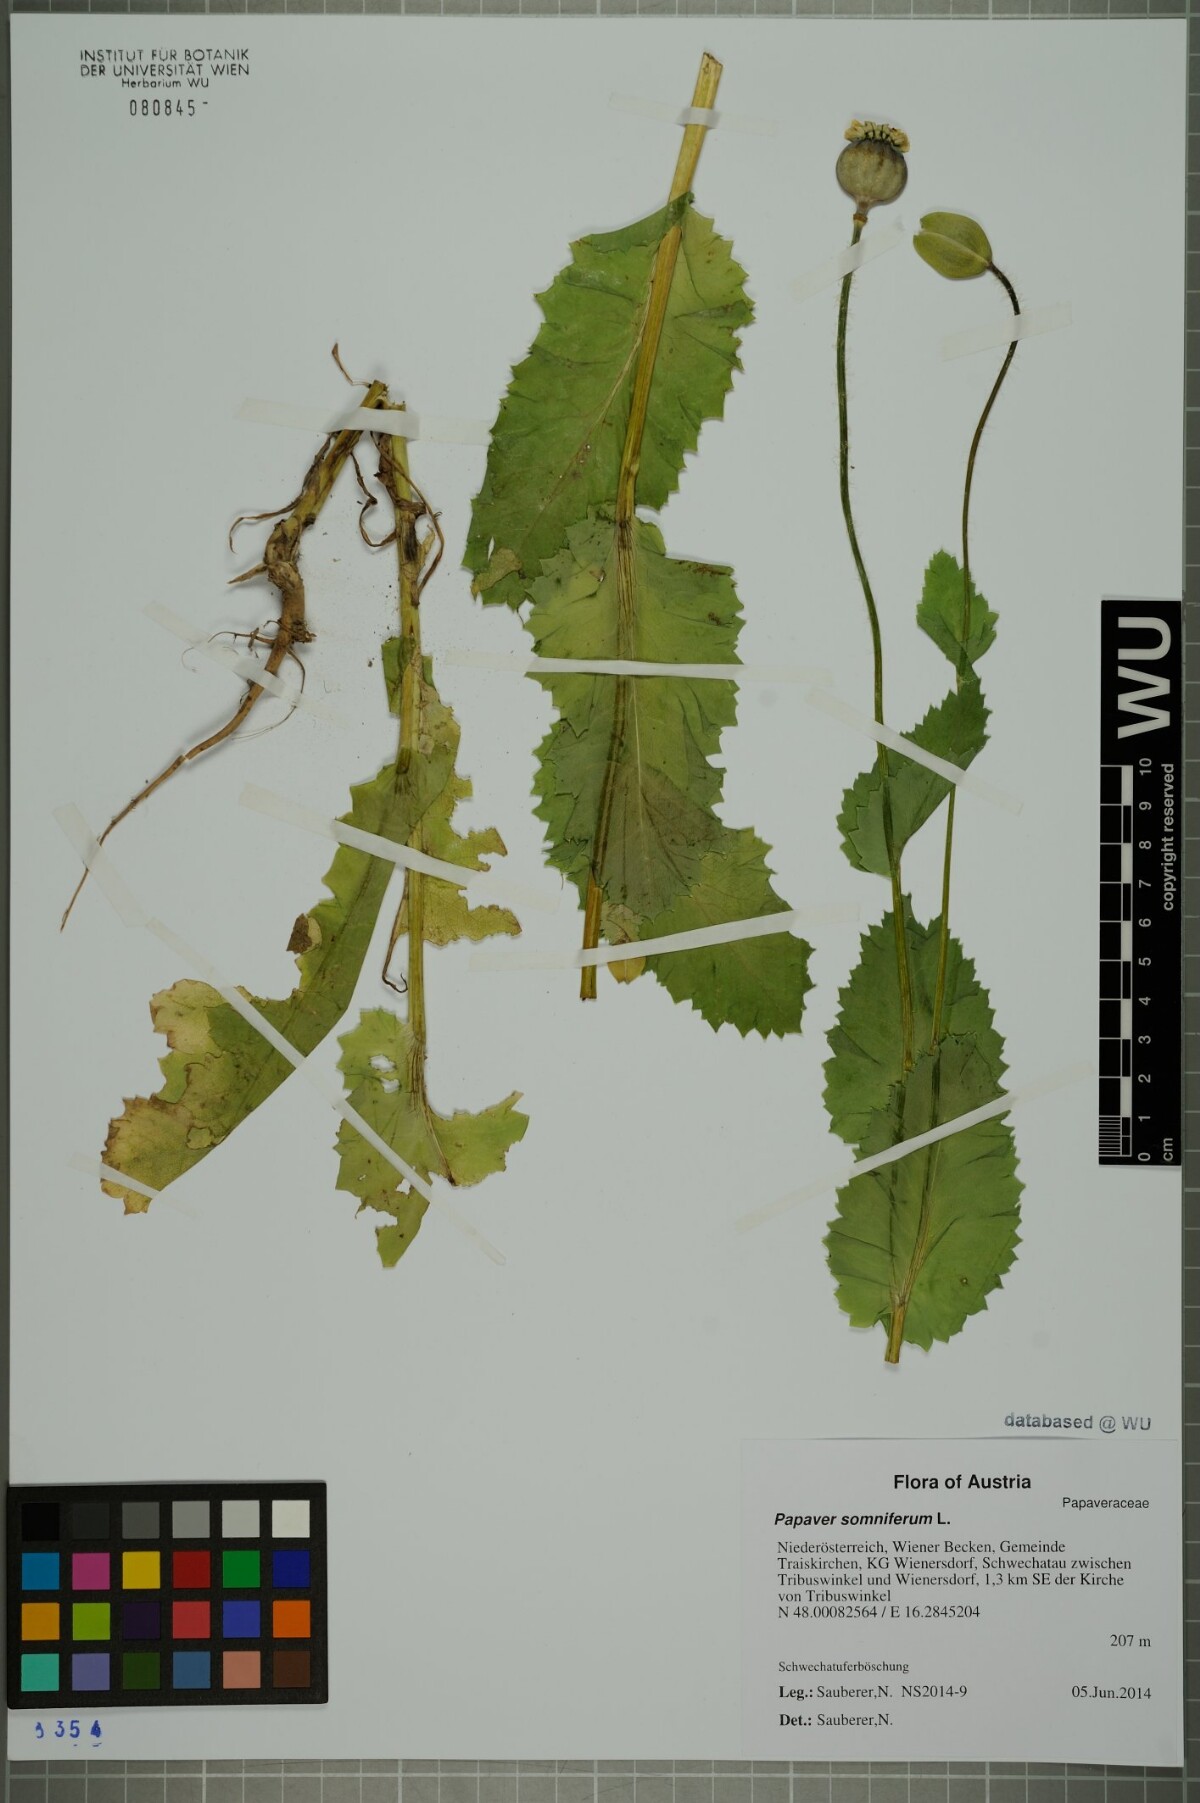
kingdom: Plantae
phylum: Tracheophyta
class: Magnoliopsida
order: Ranunculales
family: Papaveraceae
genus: Papaver
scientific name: Papaver somniferum
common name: Opium poppy
